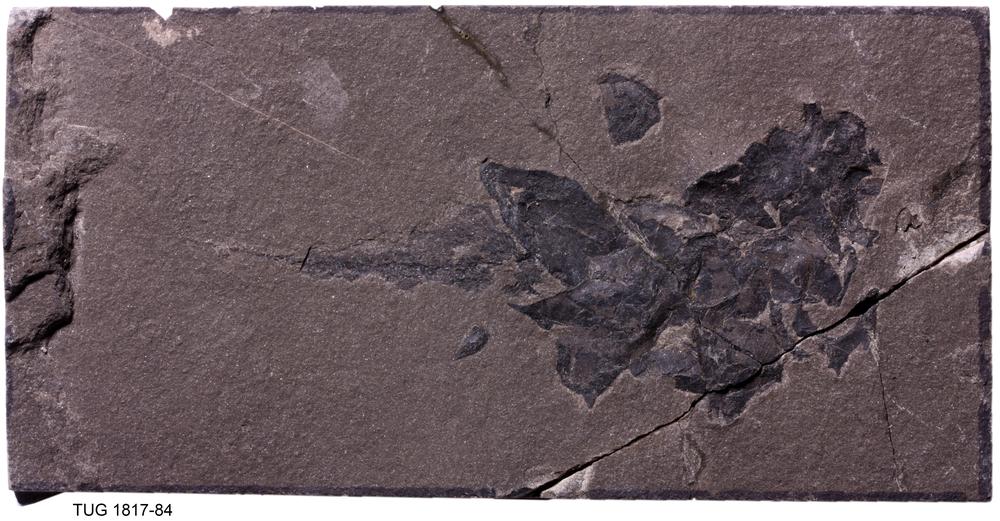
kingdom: Animalia
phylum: Chordata
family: Coccosteidae
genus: Millerosteus
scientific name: Millerosteus minor
